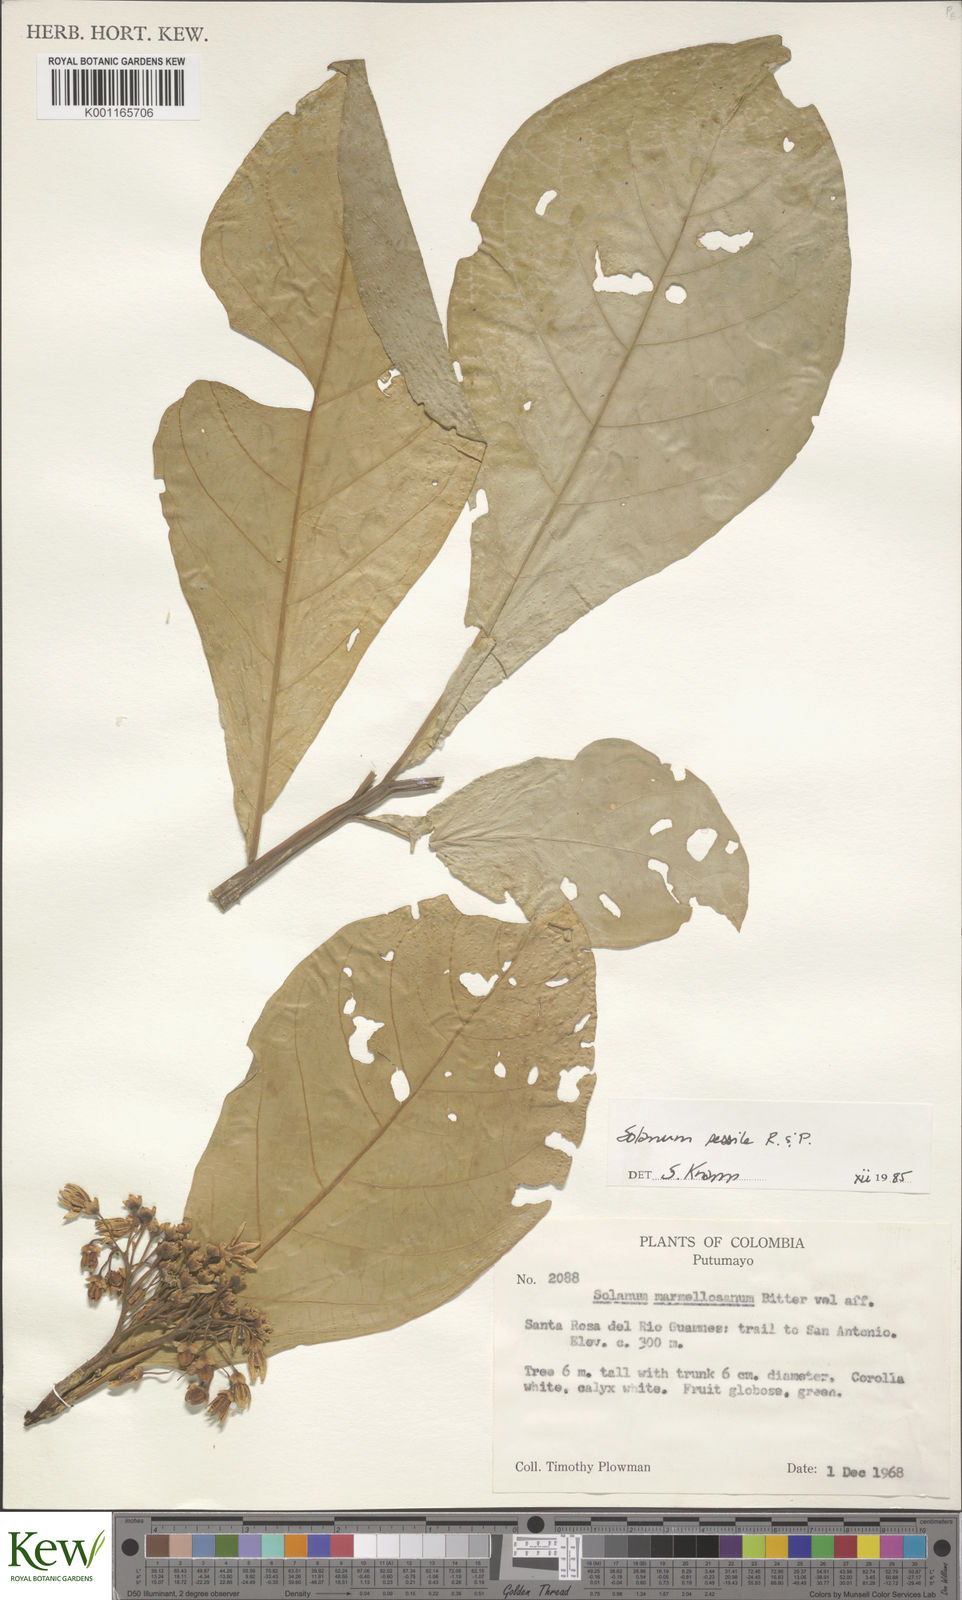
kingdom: Plantae
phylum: Tracheophyta
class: Magnoliopsida
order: Solanales
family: Solanaceae
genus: Solanum
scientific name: Solanum sessile
